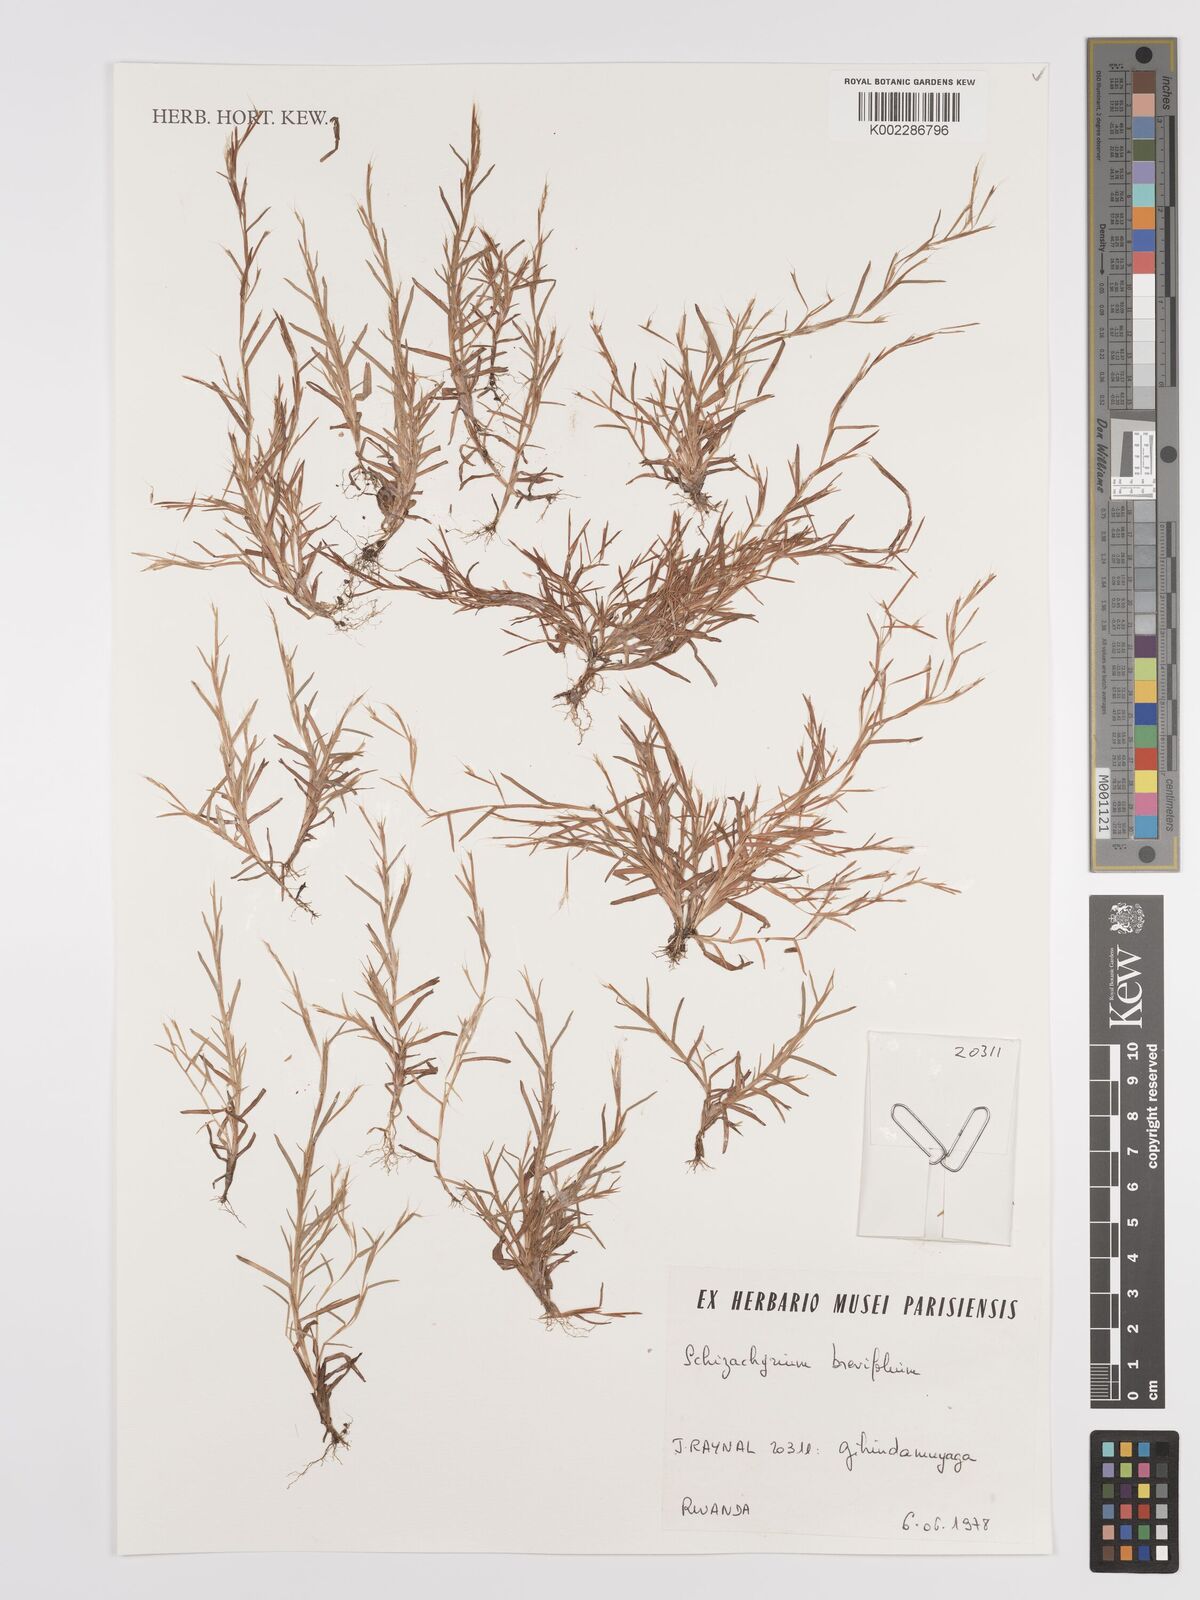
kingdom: Plantae
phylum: Tracheophyta
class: Liliopsida
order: Poales
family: Poaceae
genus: Schizachyrium
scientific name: Schizachyrium brevifolium
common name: Serillo dulce
